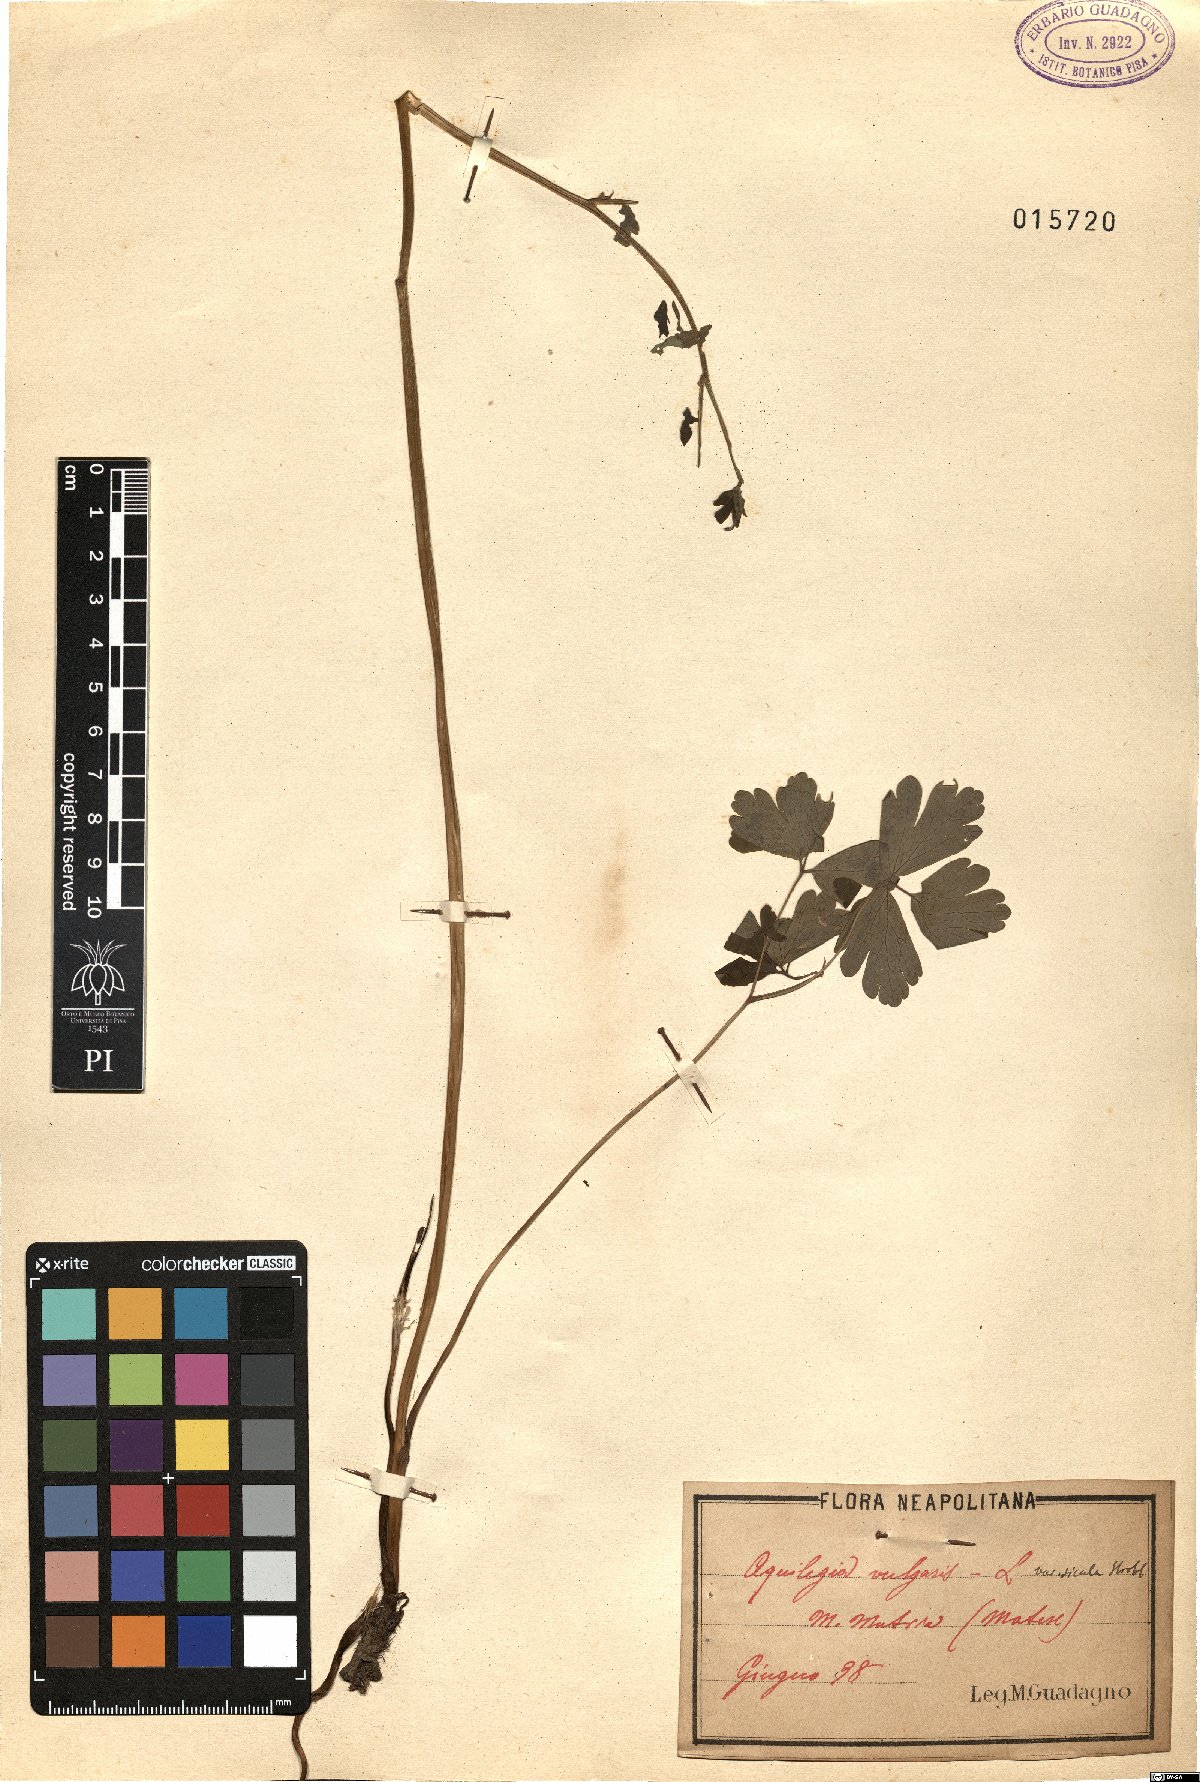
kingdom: Plantae
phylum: Tracheophyta
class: Magnoliopsida
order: Ranunculales
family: Ranunculaceae
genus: Aquilegia
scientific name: Aquilegia dumeticola
